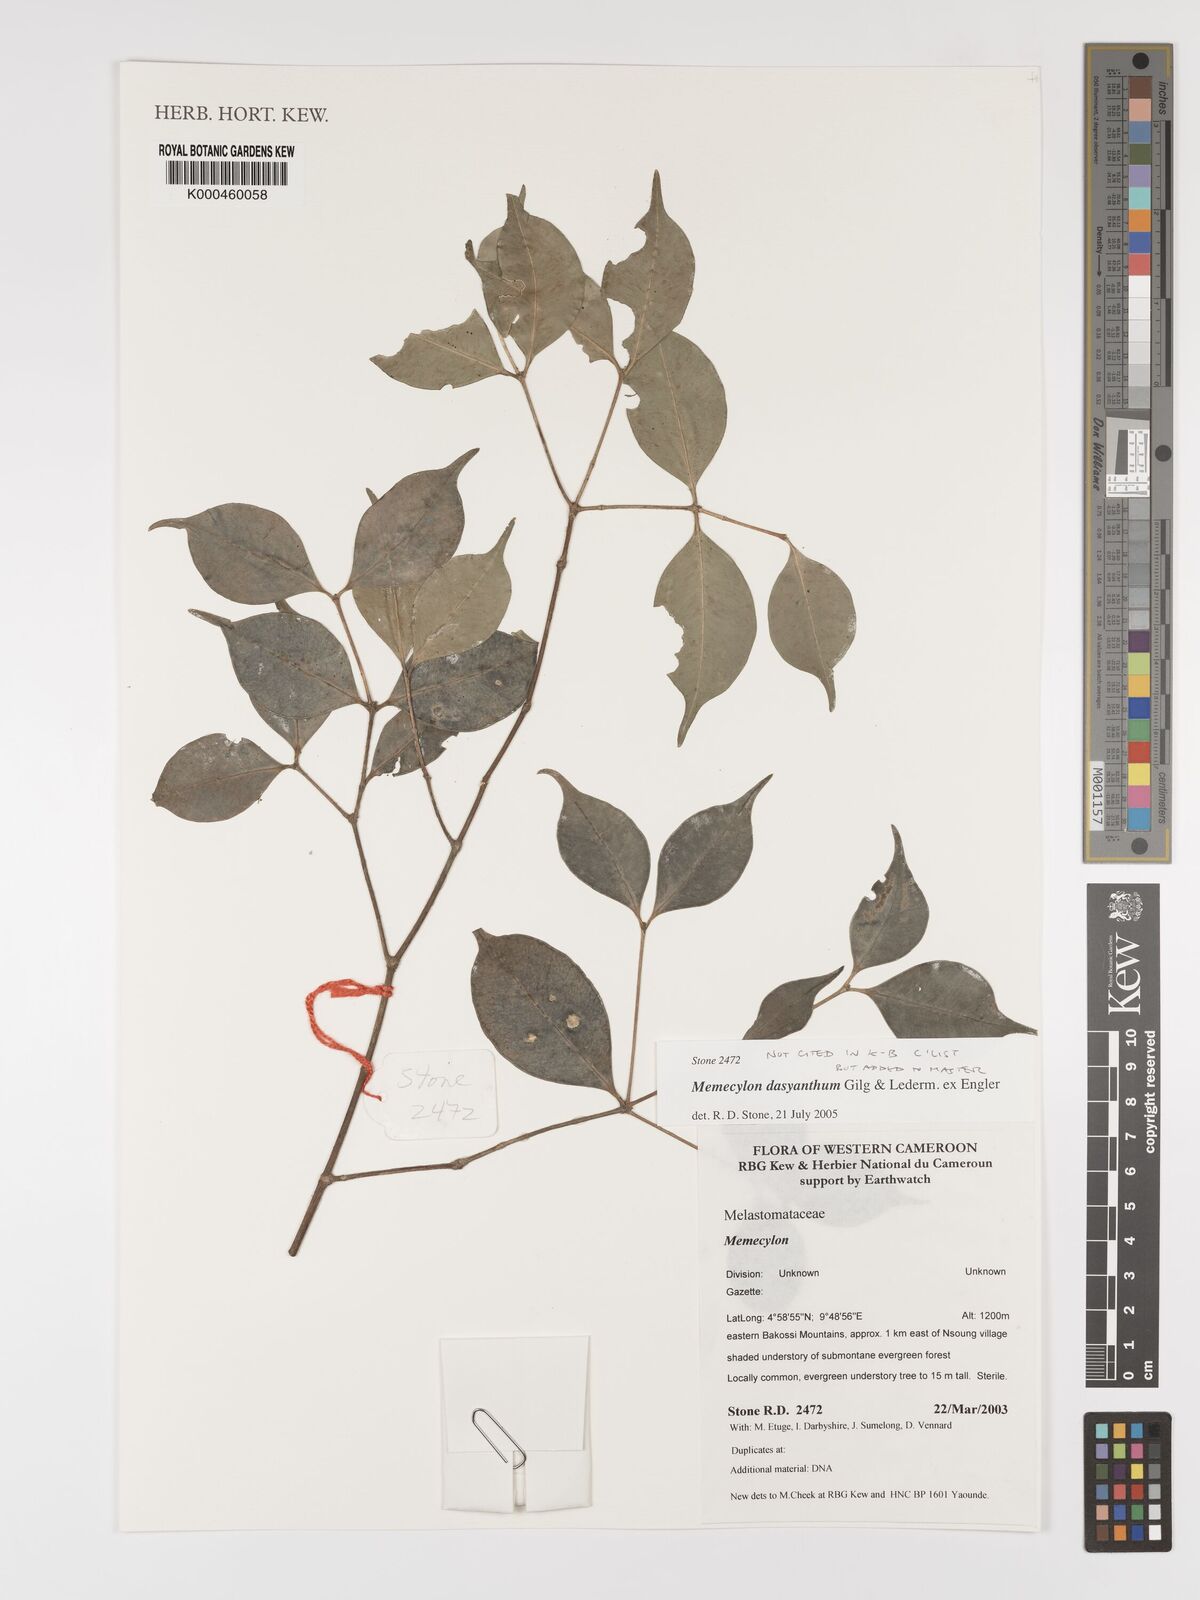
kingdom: Plantae
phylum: Tracheophyta
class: Magnoliopsida
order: Myrtales
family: Melastomataceae
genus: Memecylon
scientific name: Memecylon dasyanthum
